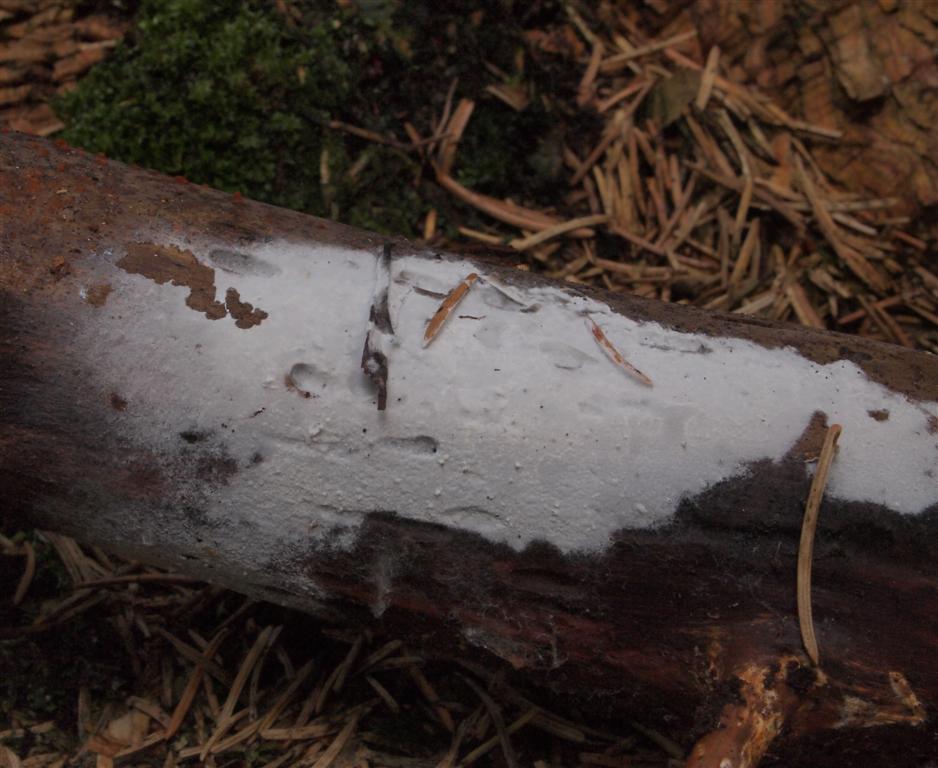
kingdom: Fungi
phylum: Basidiomycota
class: Agaricomycetes
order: Atheliales
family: Atheliaceae
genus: Athelia
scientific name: Athelia neuhoffii
